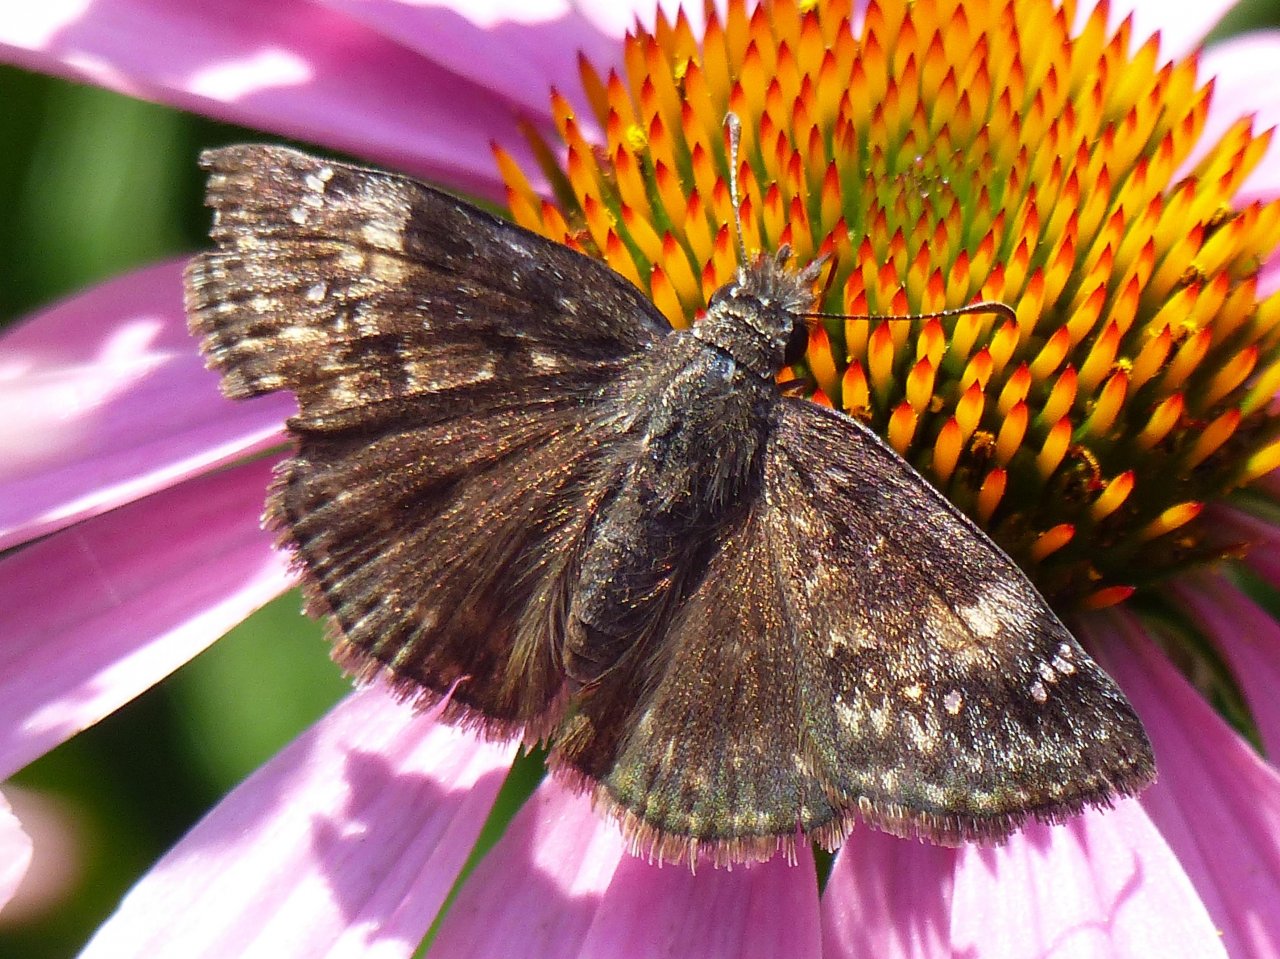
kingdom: Animalia
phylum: Arthropoda
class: Insecta
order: Lepidoptera
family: Hesperiidae
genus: Gesta
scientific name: Gesta
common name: Wild Indigo Duskywing
